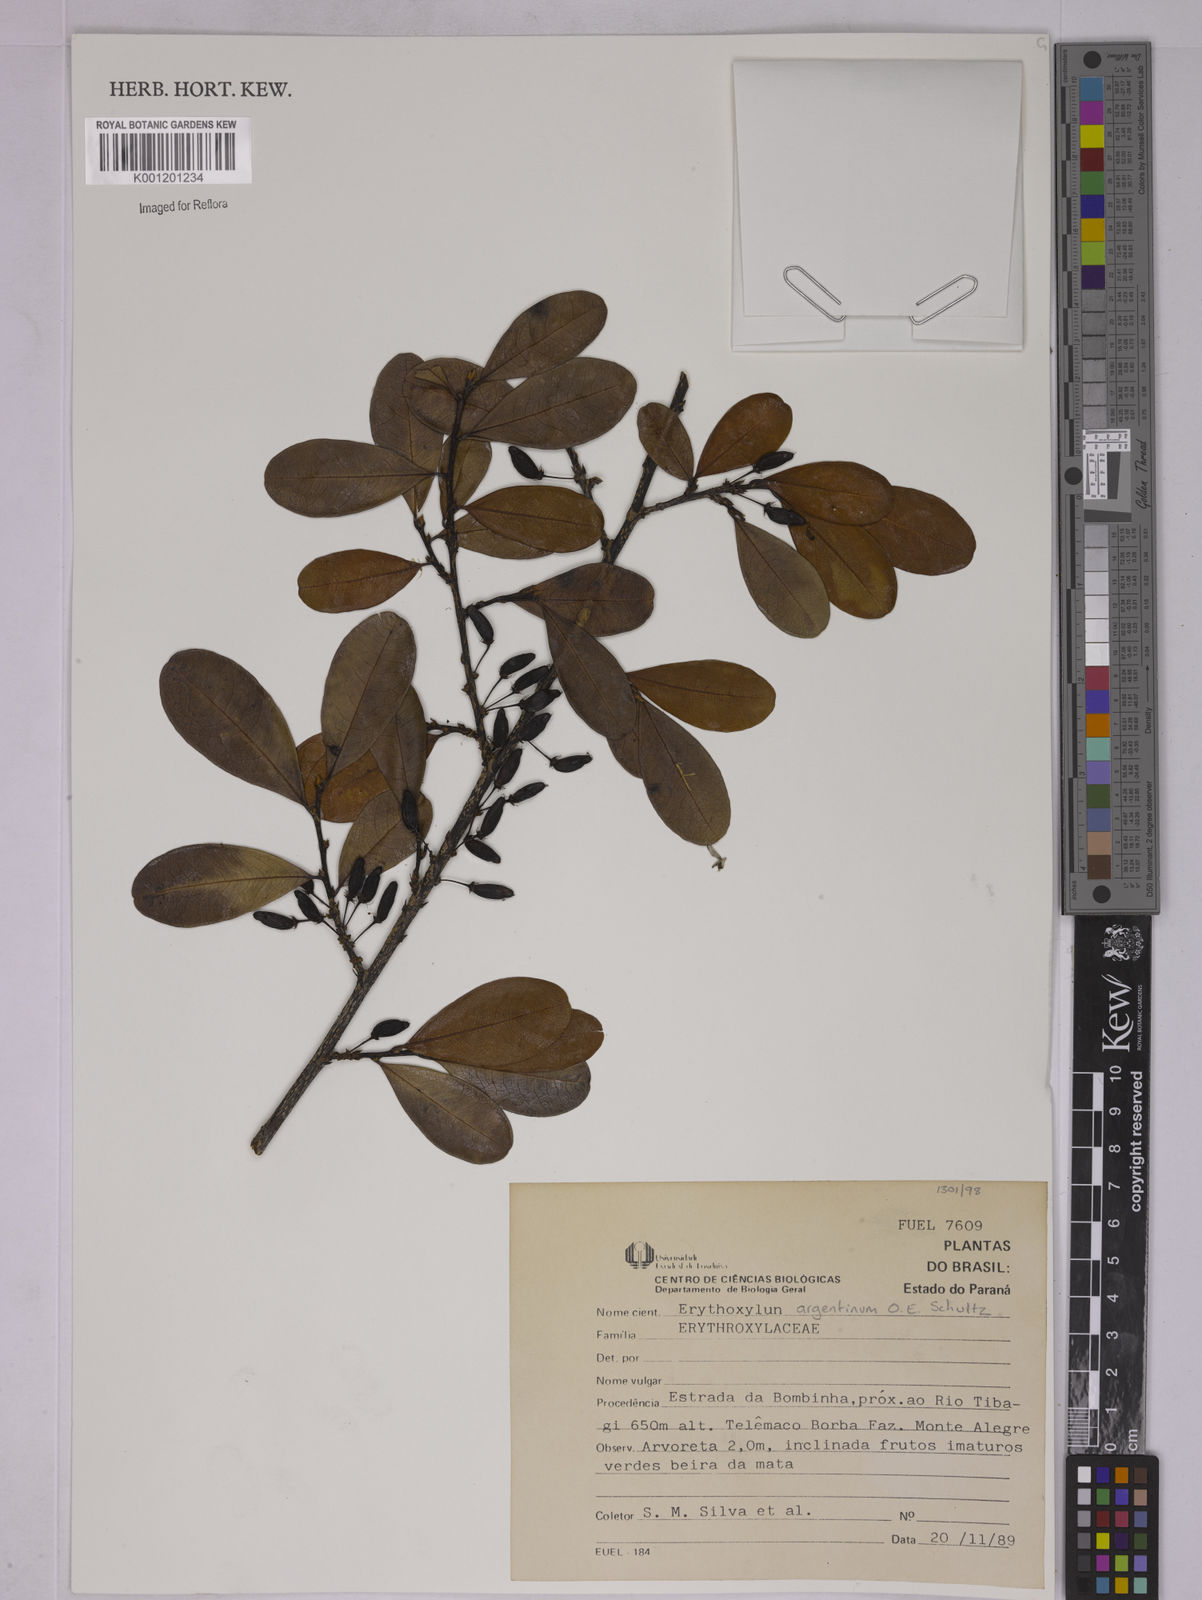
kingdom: Plantae
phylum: Tracheophyta
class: Magnoliopsida
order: Malpighiales
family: Erythroxylaceae
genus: Erythroxylum
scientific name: Erythroxylum argentinum
